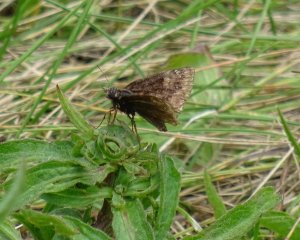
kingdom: Animalia
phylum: Arthropoda
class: Insecta
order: Lepidoptera
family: Hesperiidae
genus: Gesta
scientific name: Gesta
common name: Wild Indigo Duskywing
